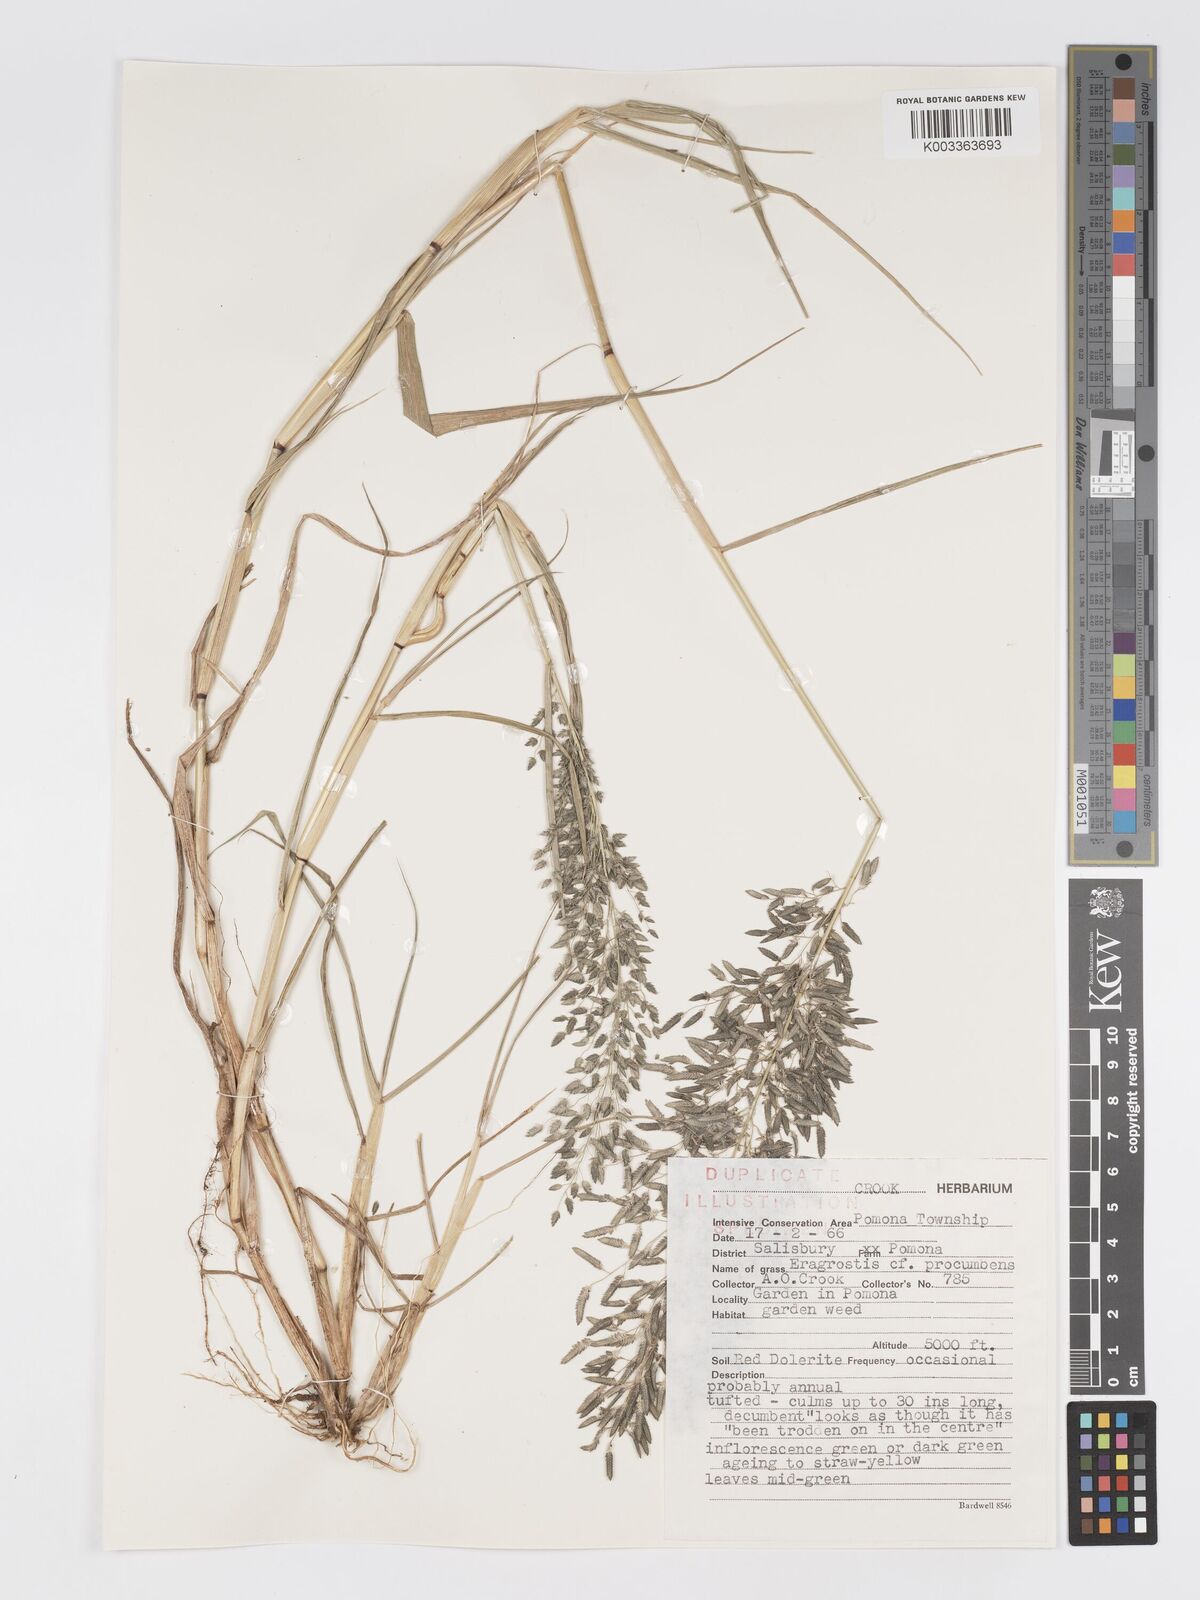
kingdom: Plantae
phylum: Tracheophyta
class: Liliopsida
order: Poales
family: Poaceae
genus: Eragrostis
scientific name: Eragrostis cilianensis
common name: Stinkgrass
